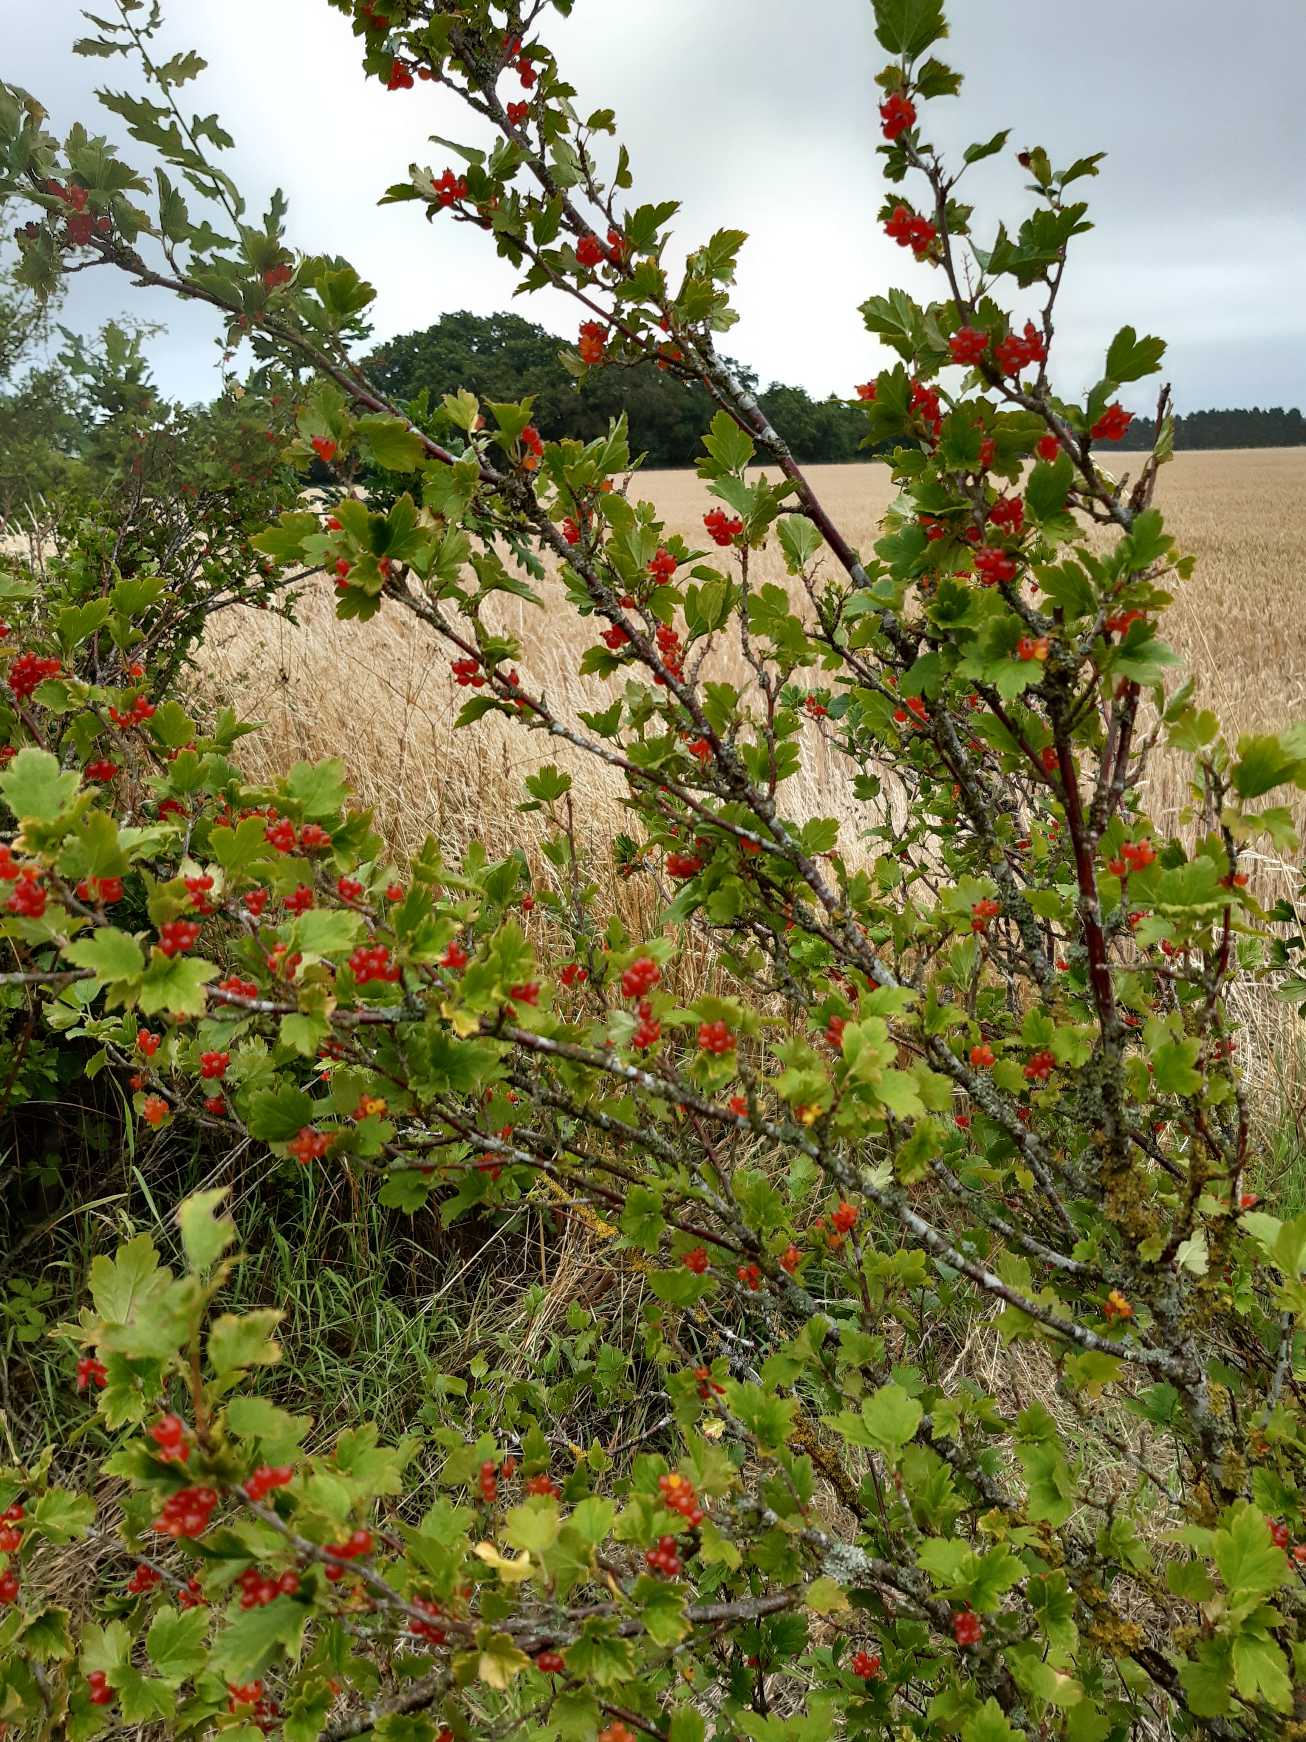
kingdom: Plantae
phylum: Tracheophyta
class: Magnoliopsida
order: Saxifragales
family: Grossulariaceae
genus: Ribes
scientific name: Ribes alpinum
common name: Fjeld-ribs
